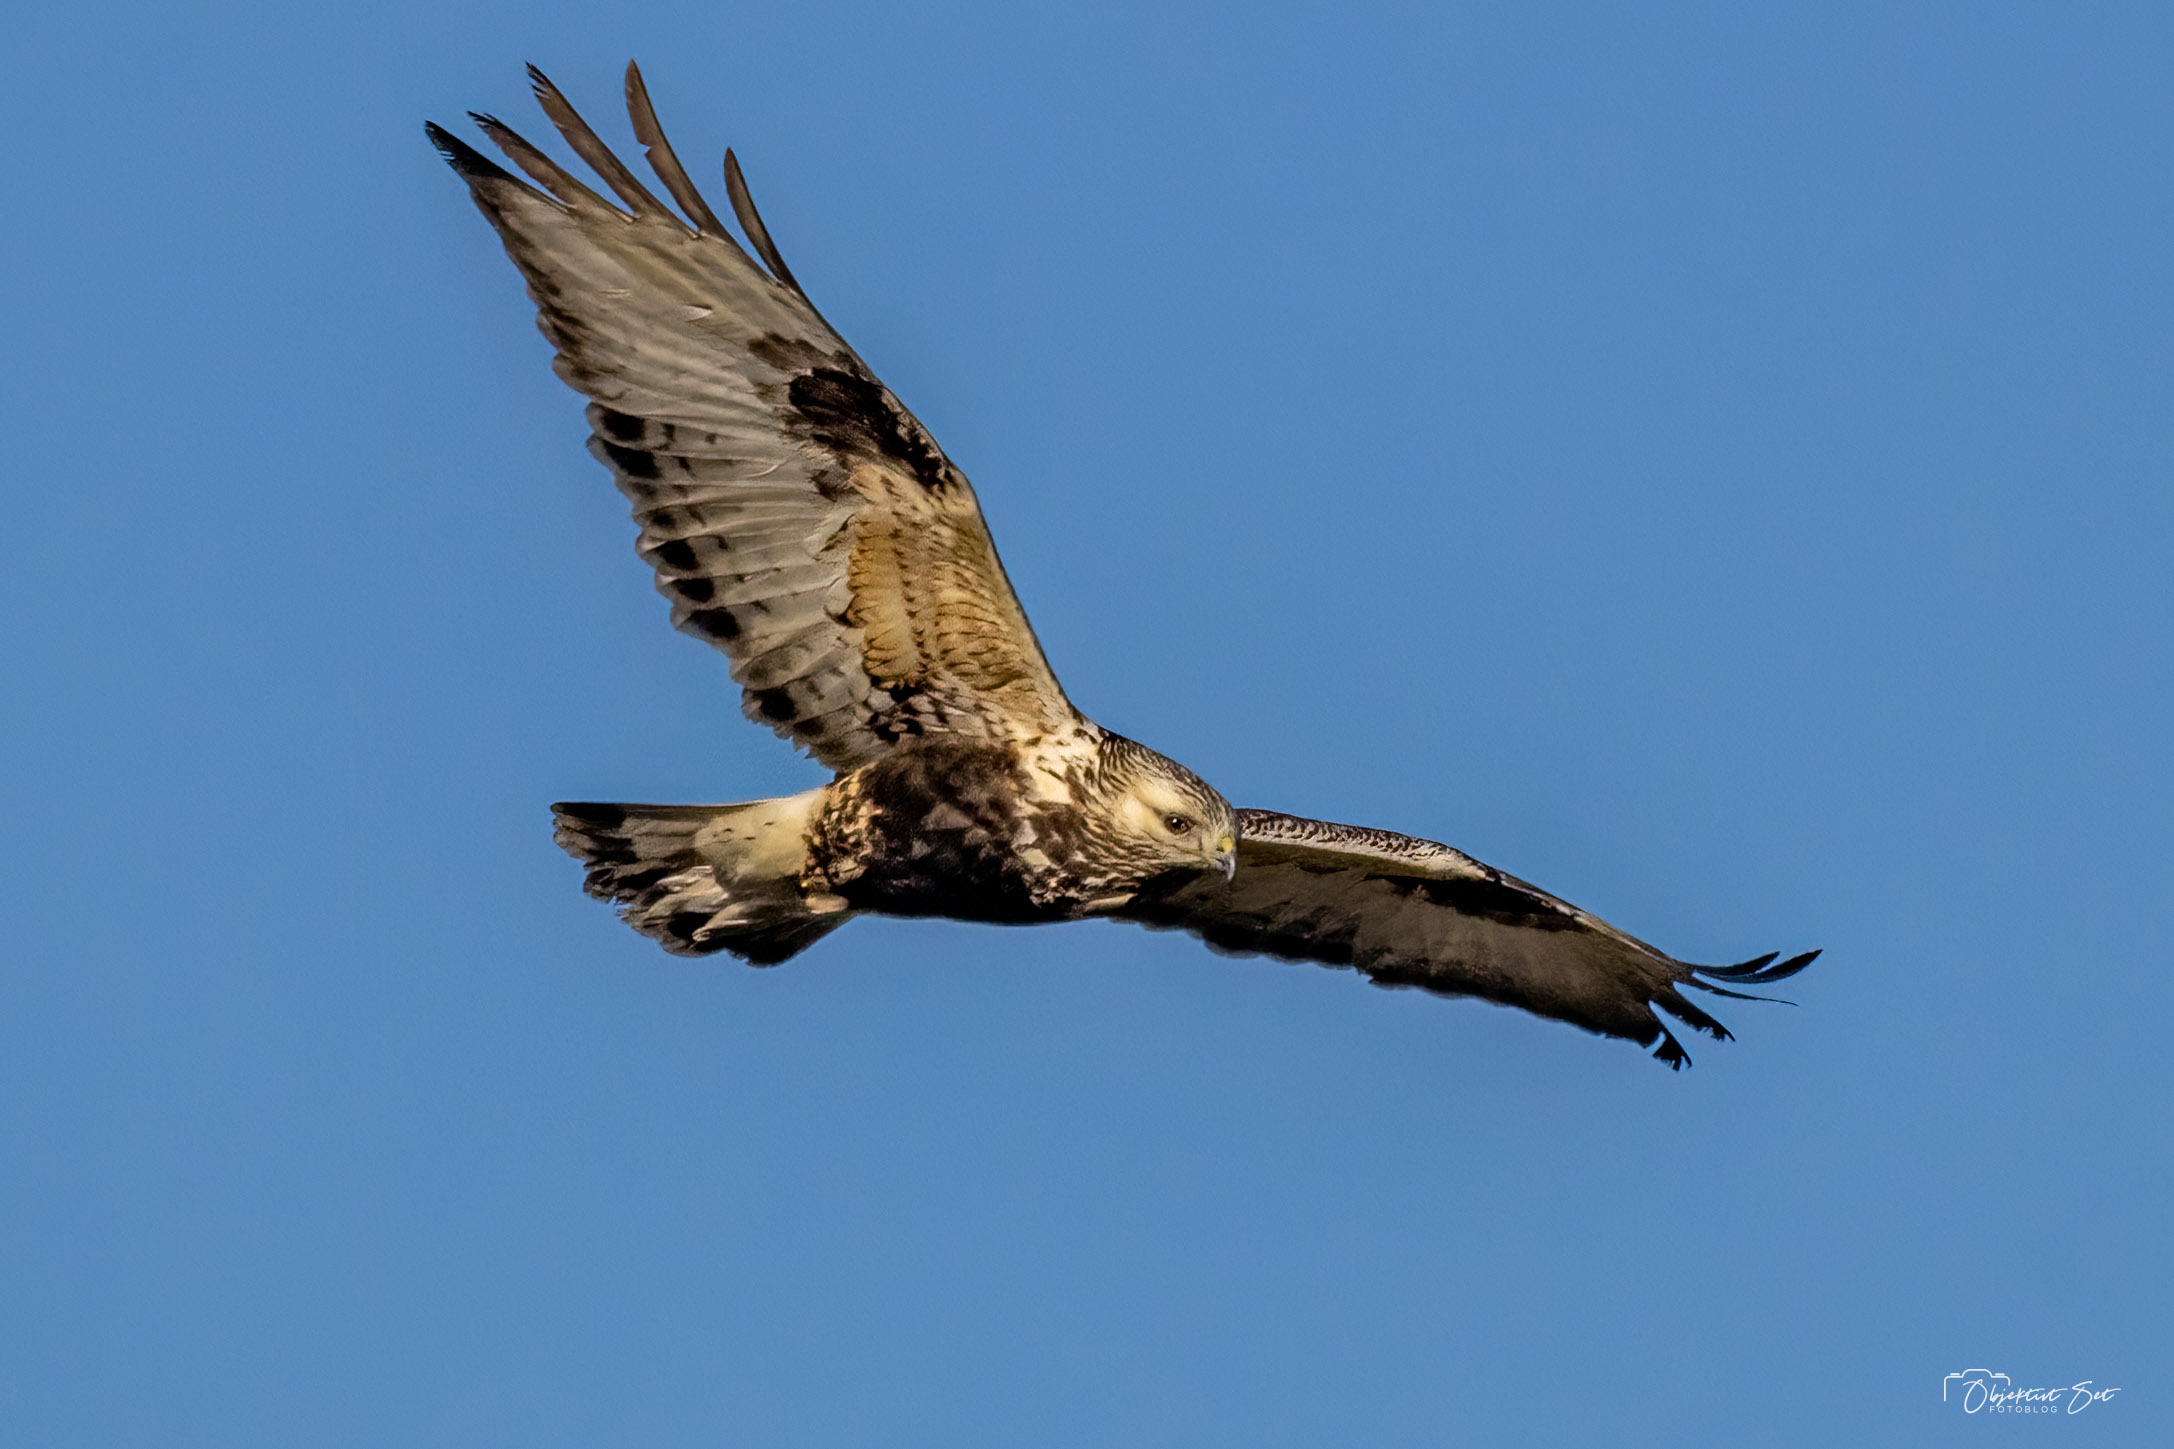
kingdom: Animalia
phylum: Chordata
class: Aves
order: Accipitriformes
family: Accipitridae
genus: Buteo
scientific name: Buteo lagopus
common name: Fjeldvåge
